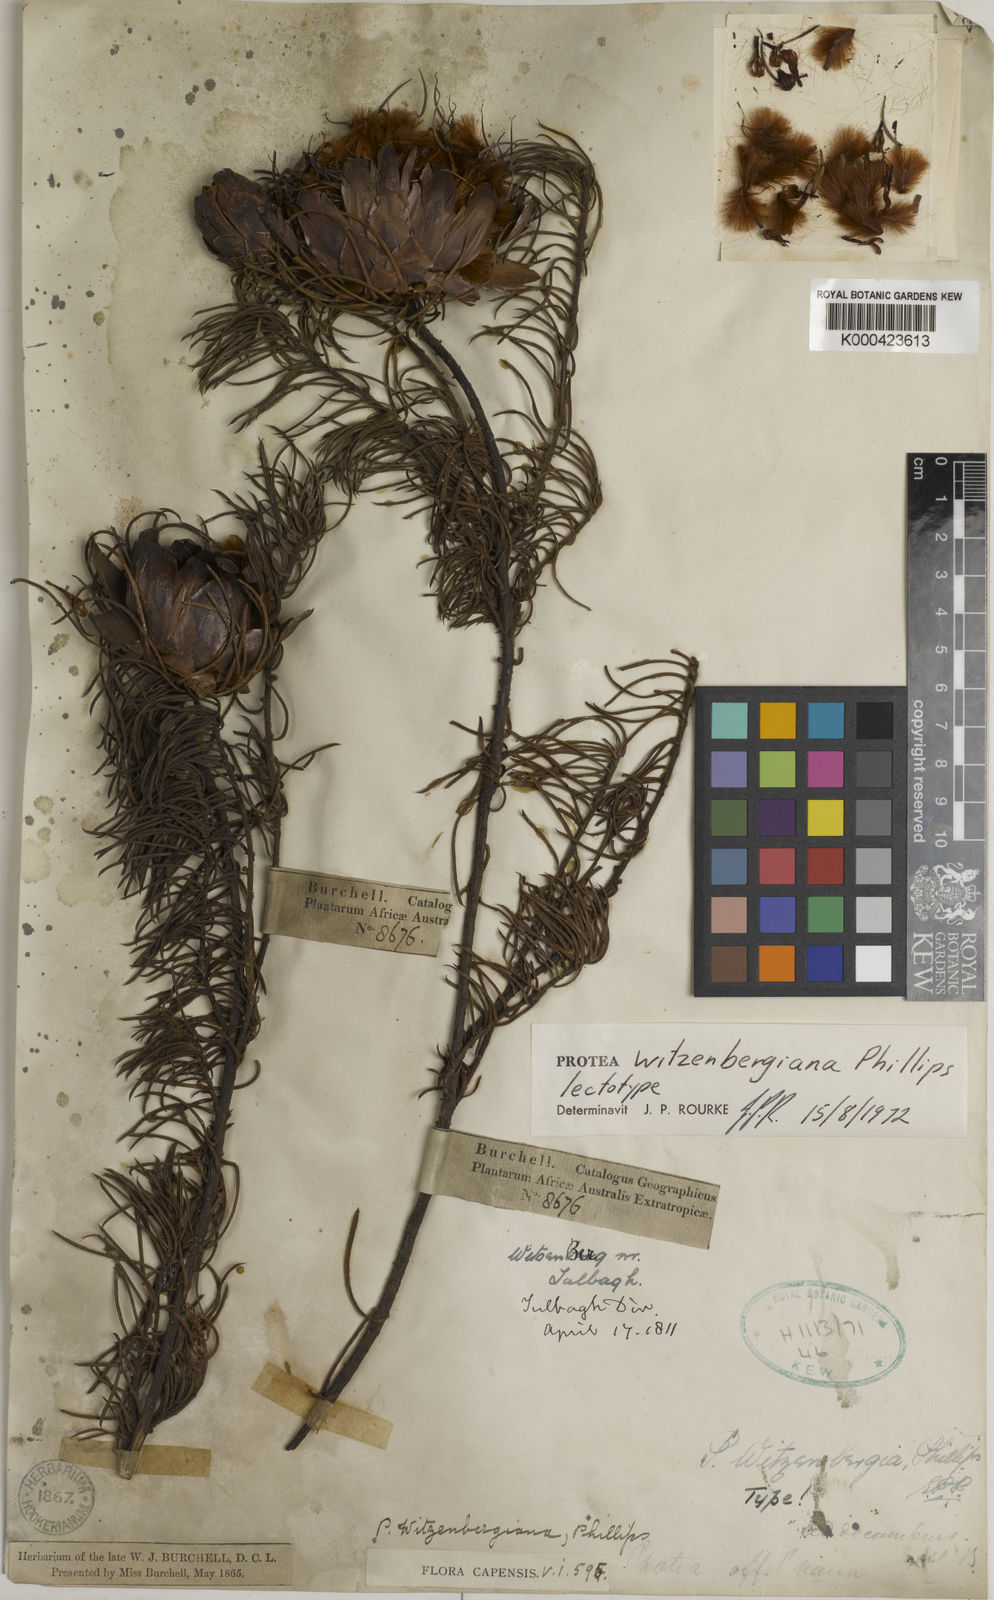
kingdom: Plantae
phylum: Tracheophyta
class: Magnoliopsida
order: Proteales
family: Proteaceae
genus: Protea
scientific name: Protea witzenbergiana
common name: Swan sugarbush
